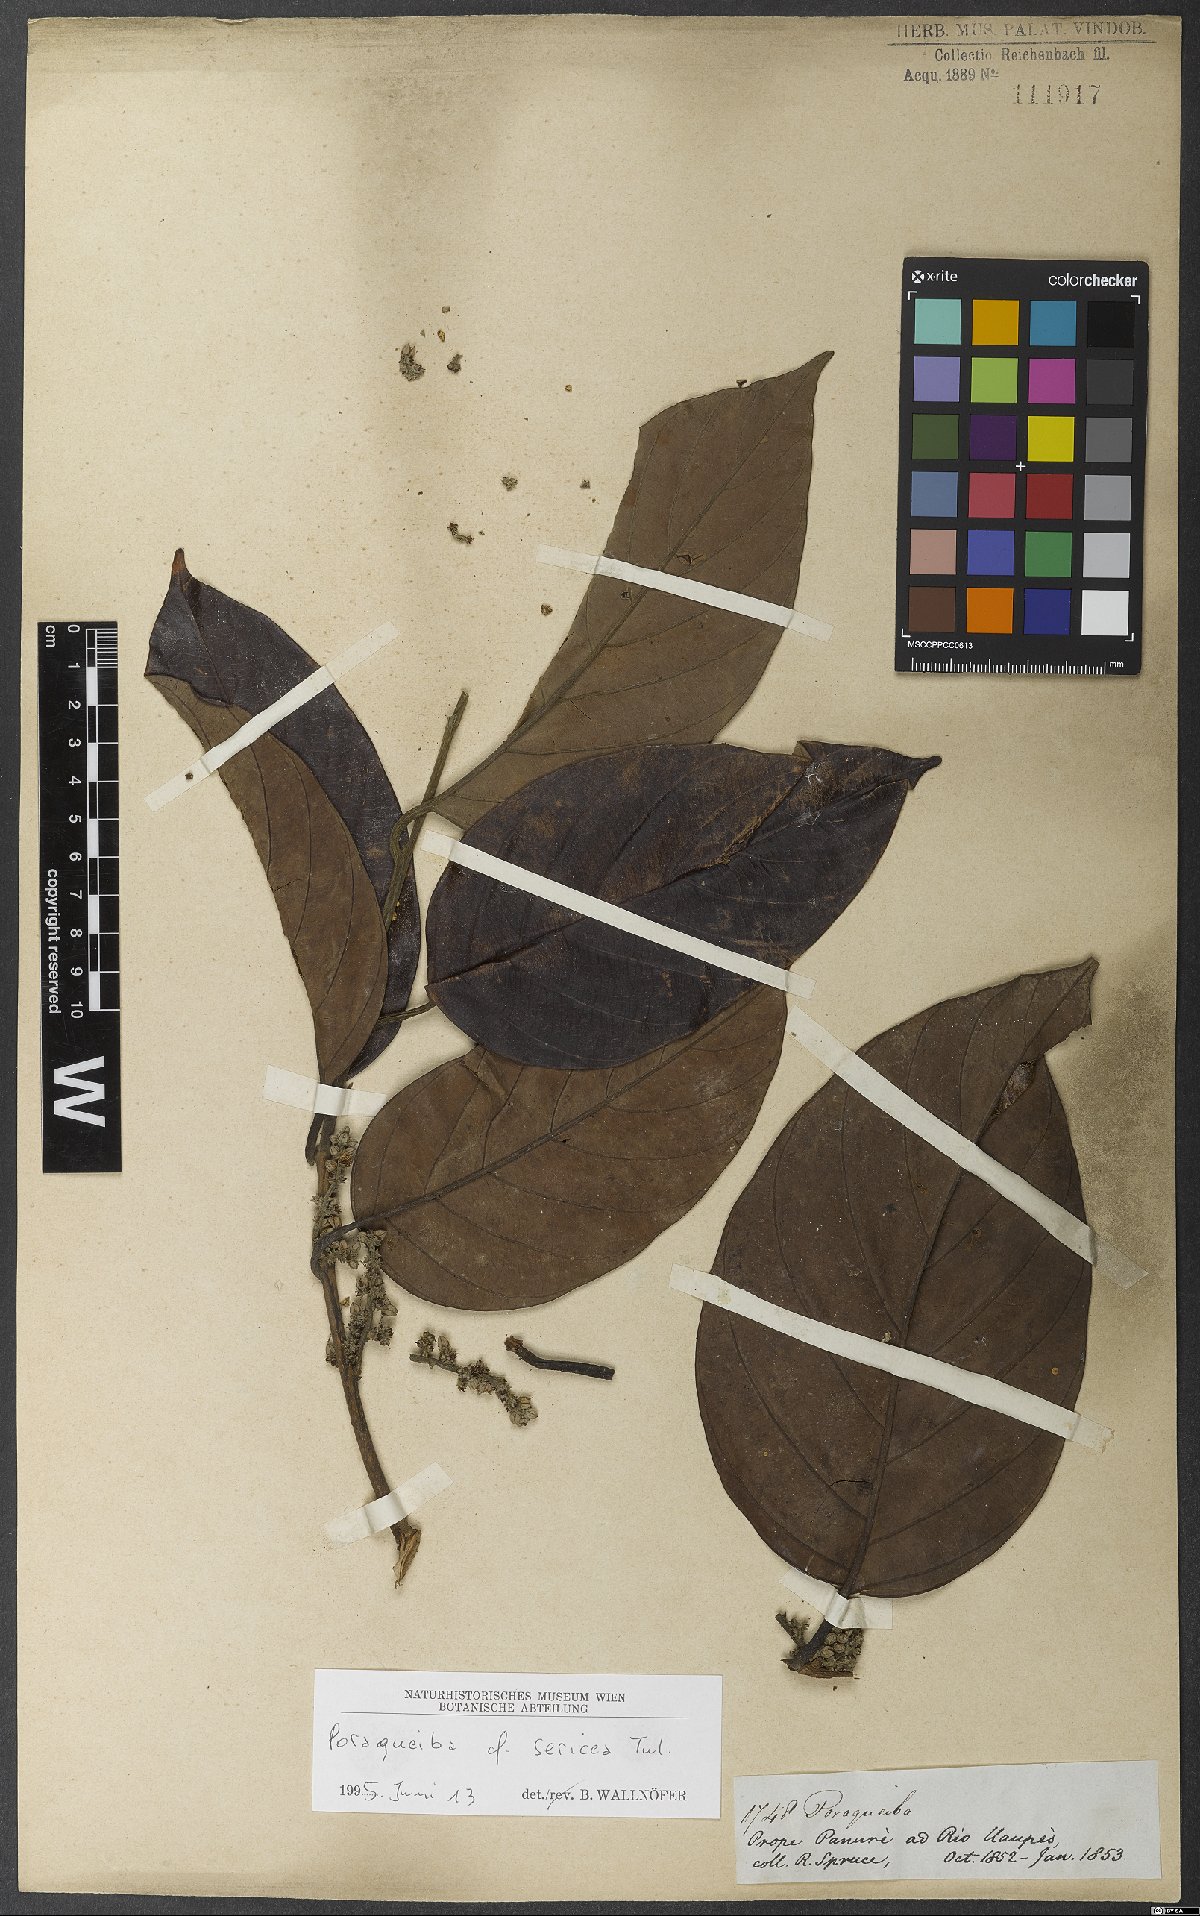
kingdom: Plantae
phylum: Tracheophyta
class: Magnoliopsida
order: Metteniusales
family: Metteniusaceae
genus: Poraqueiba
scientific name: Poraqueiba sericea
